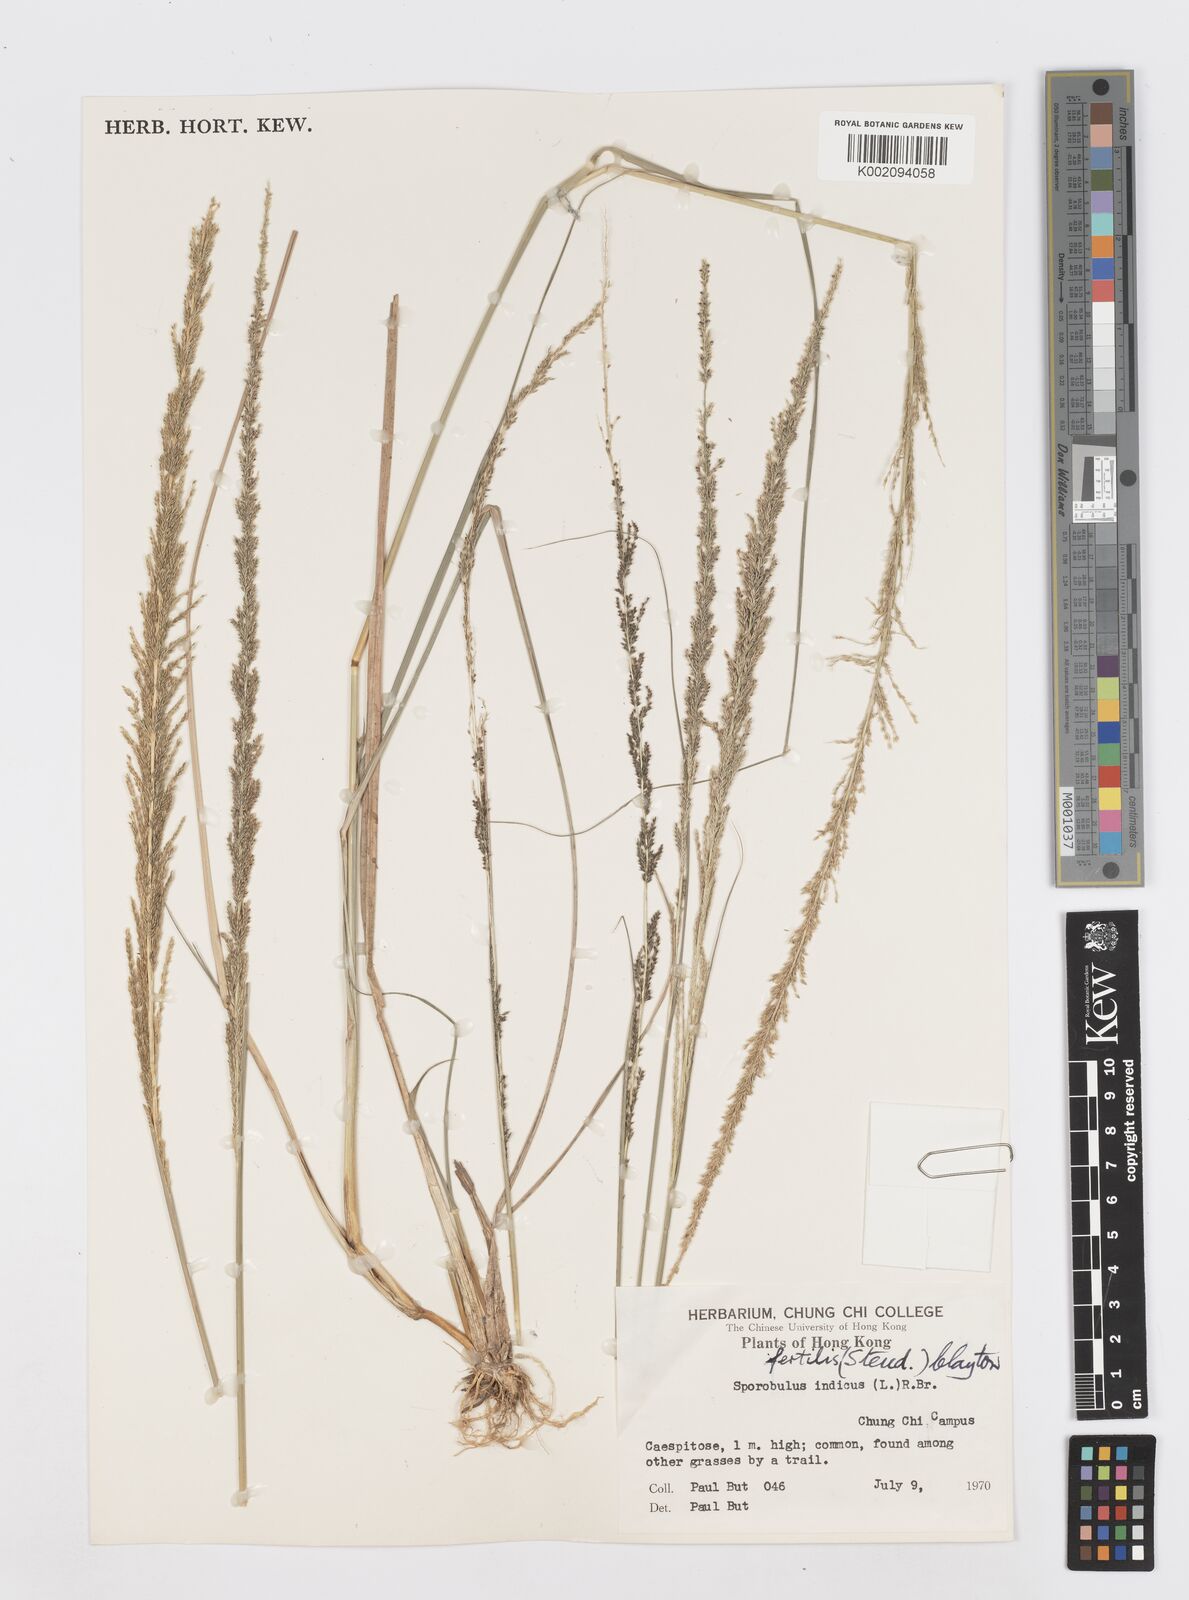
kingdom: Plantae
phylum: Tracheophyta
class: Liliopsida
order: Poales
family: Poaceae
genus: Sporobolus
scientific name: Sporobolus fertilis
